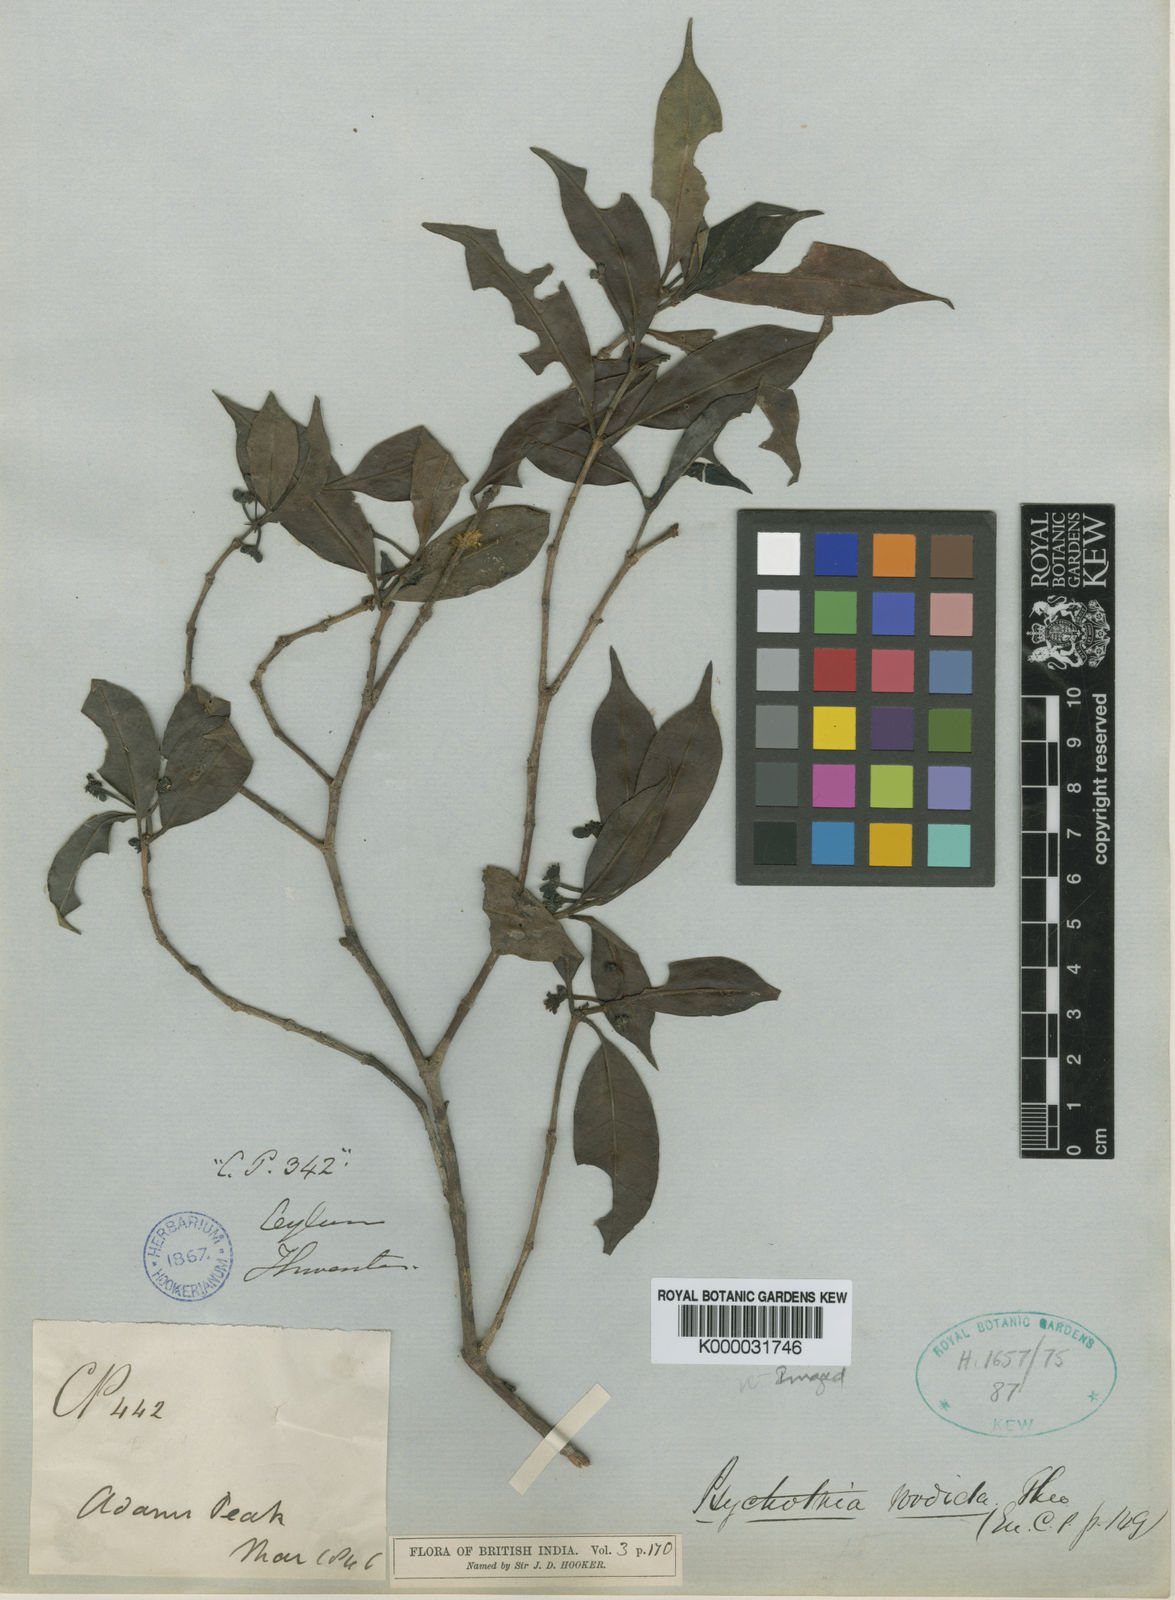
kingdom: Plantae
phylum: Tracheophyta
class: Magnoliopsida
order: Gentianales
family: Rubiaceae
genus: Psychotria
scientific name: Psychotria sordida
